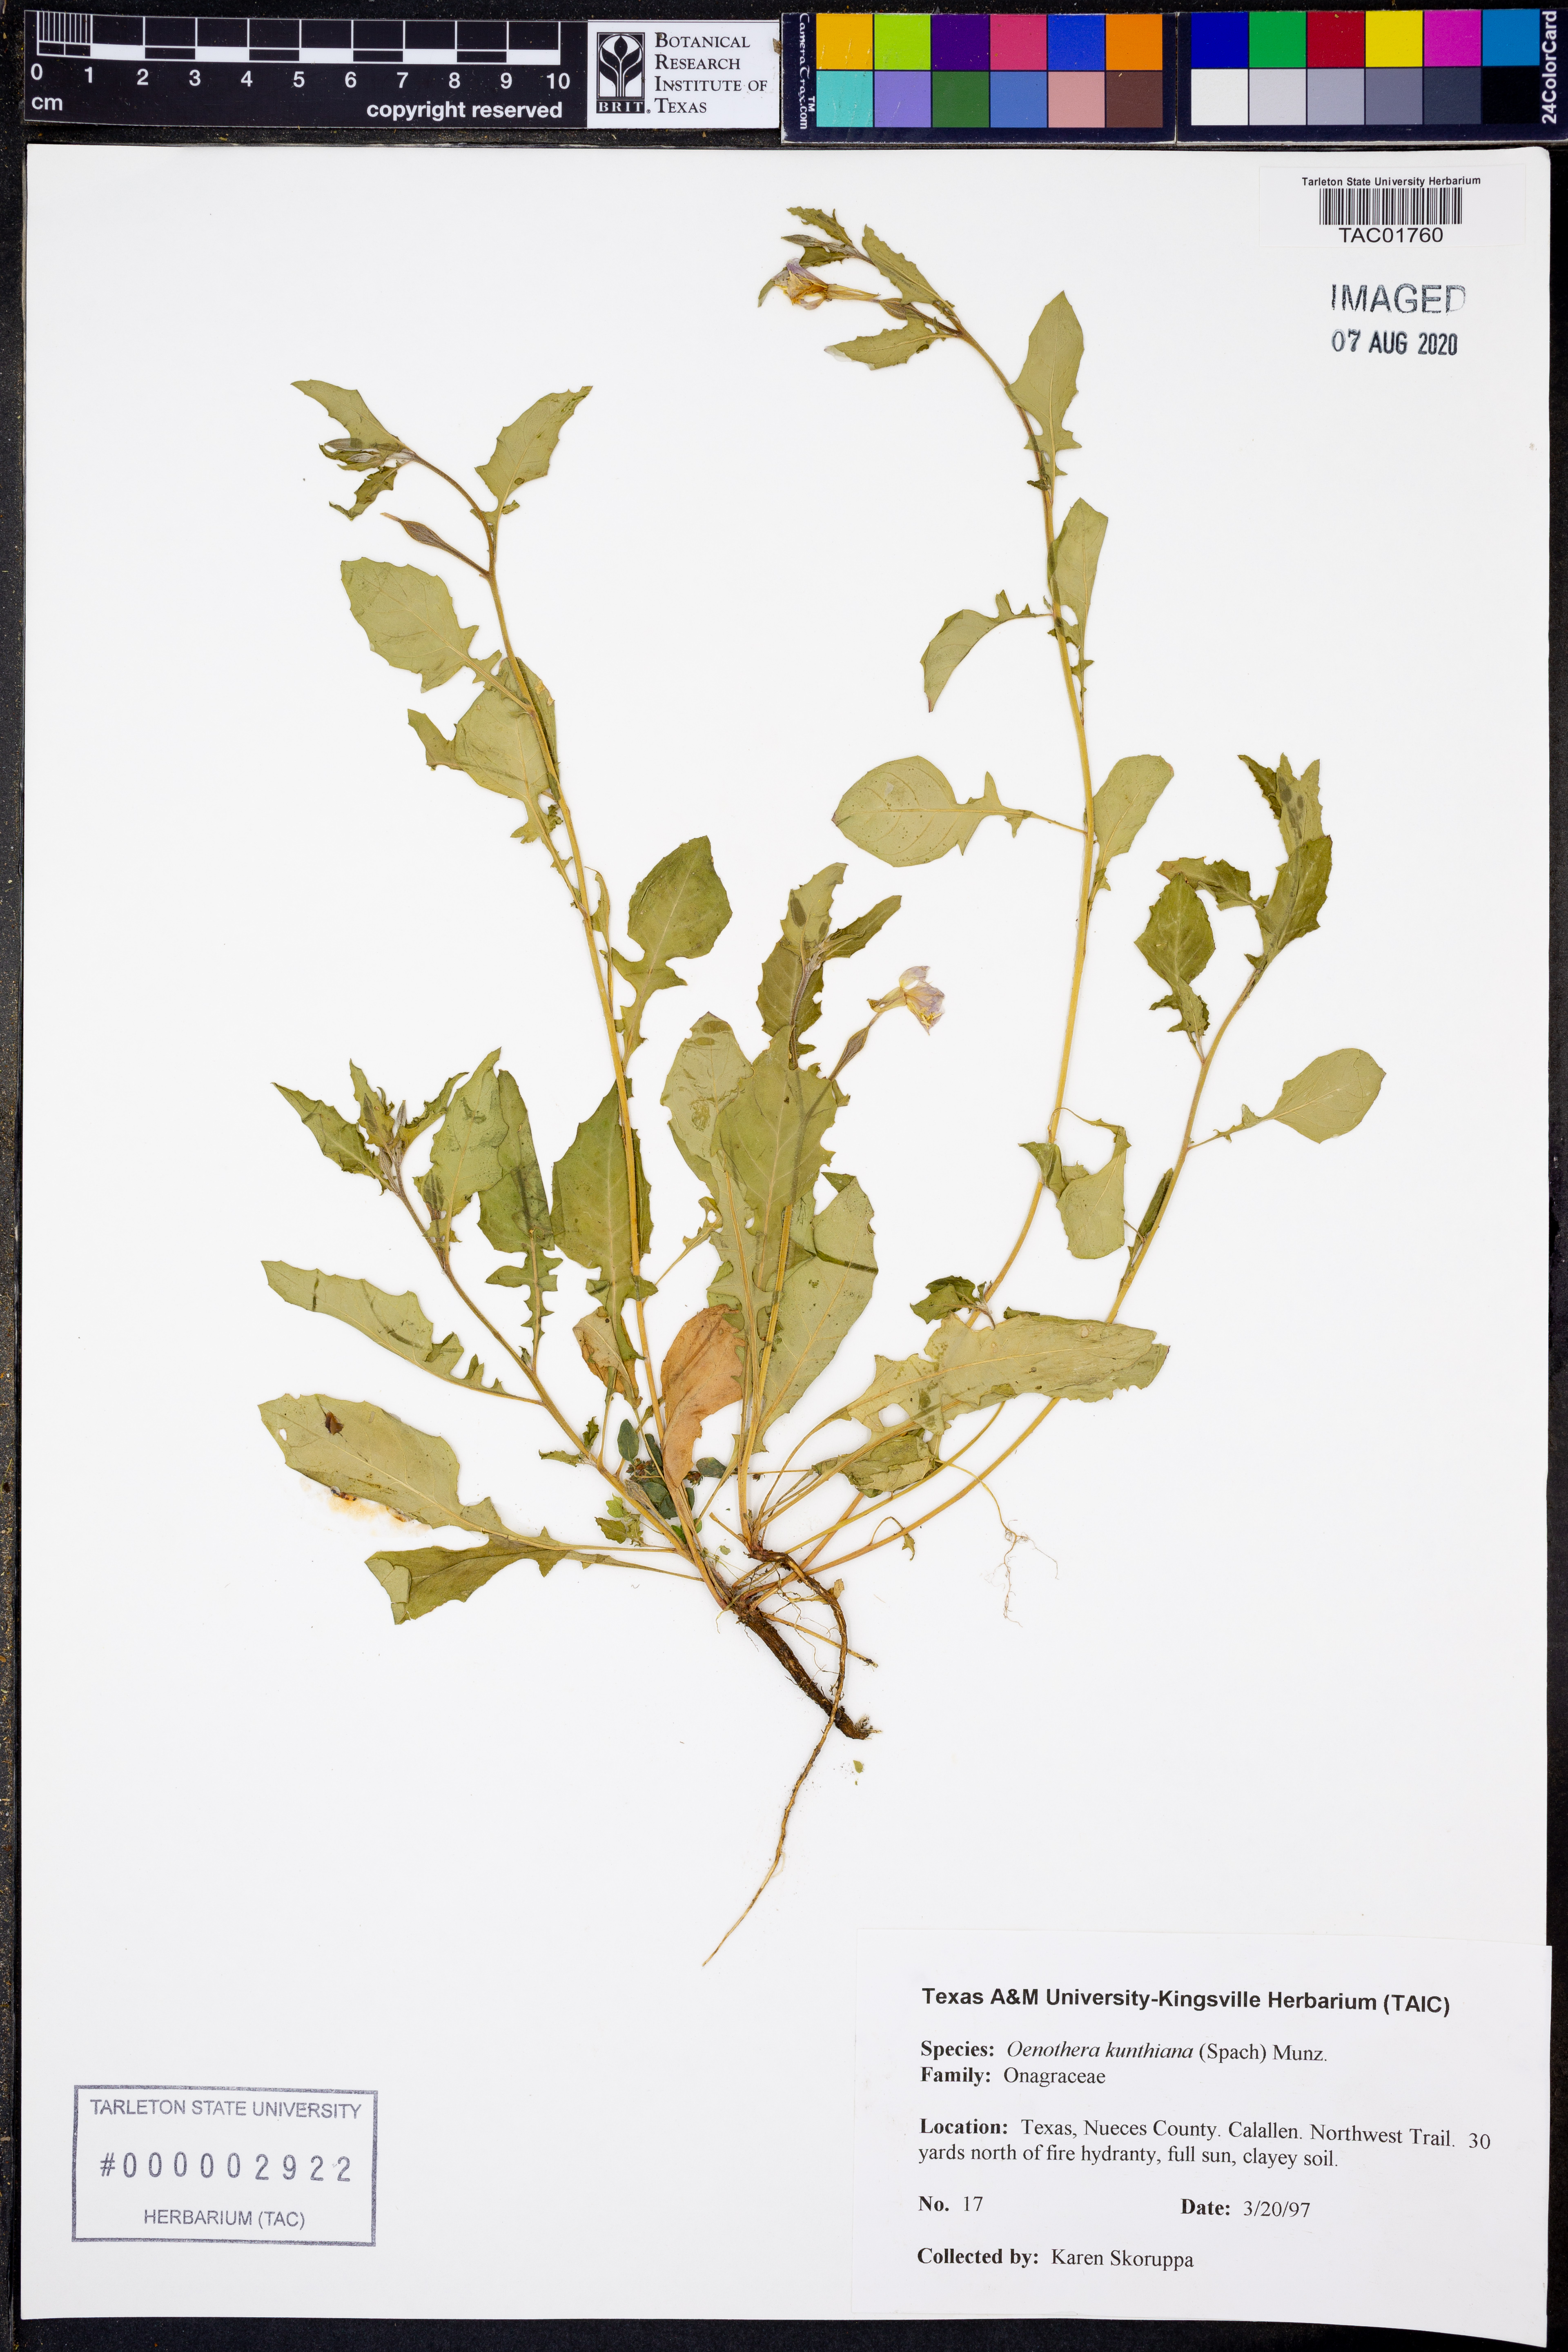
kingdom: Plantae
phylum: Tracheophyta
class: Magnoliopsida
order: Myrtales
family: Onagraceae
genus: Oenothera
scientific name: Oenothera kunthiana
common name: Kunth's evening-primrose
